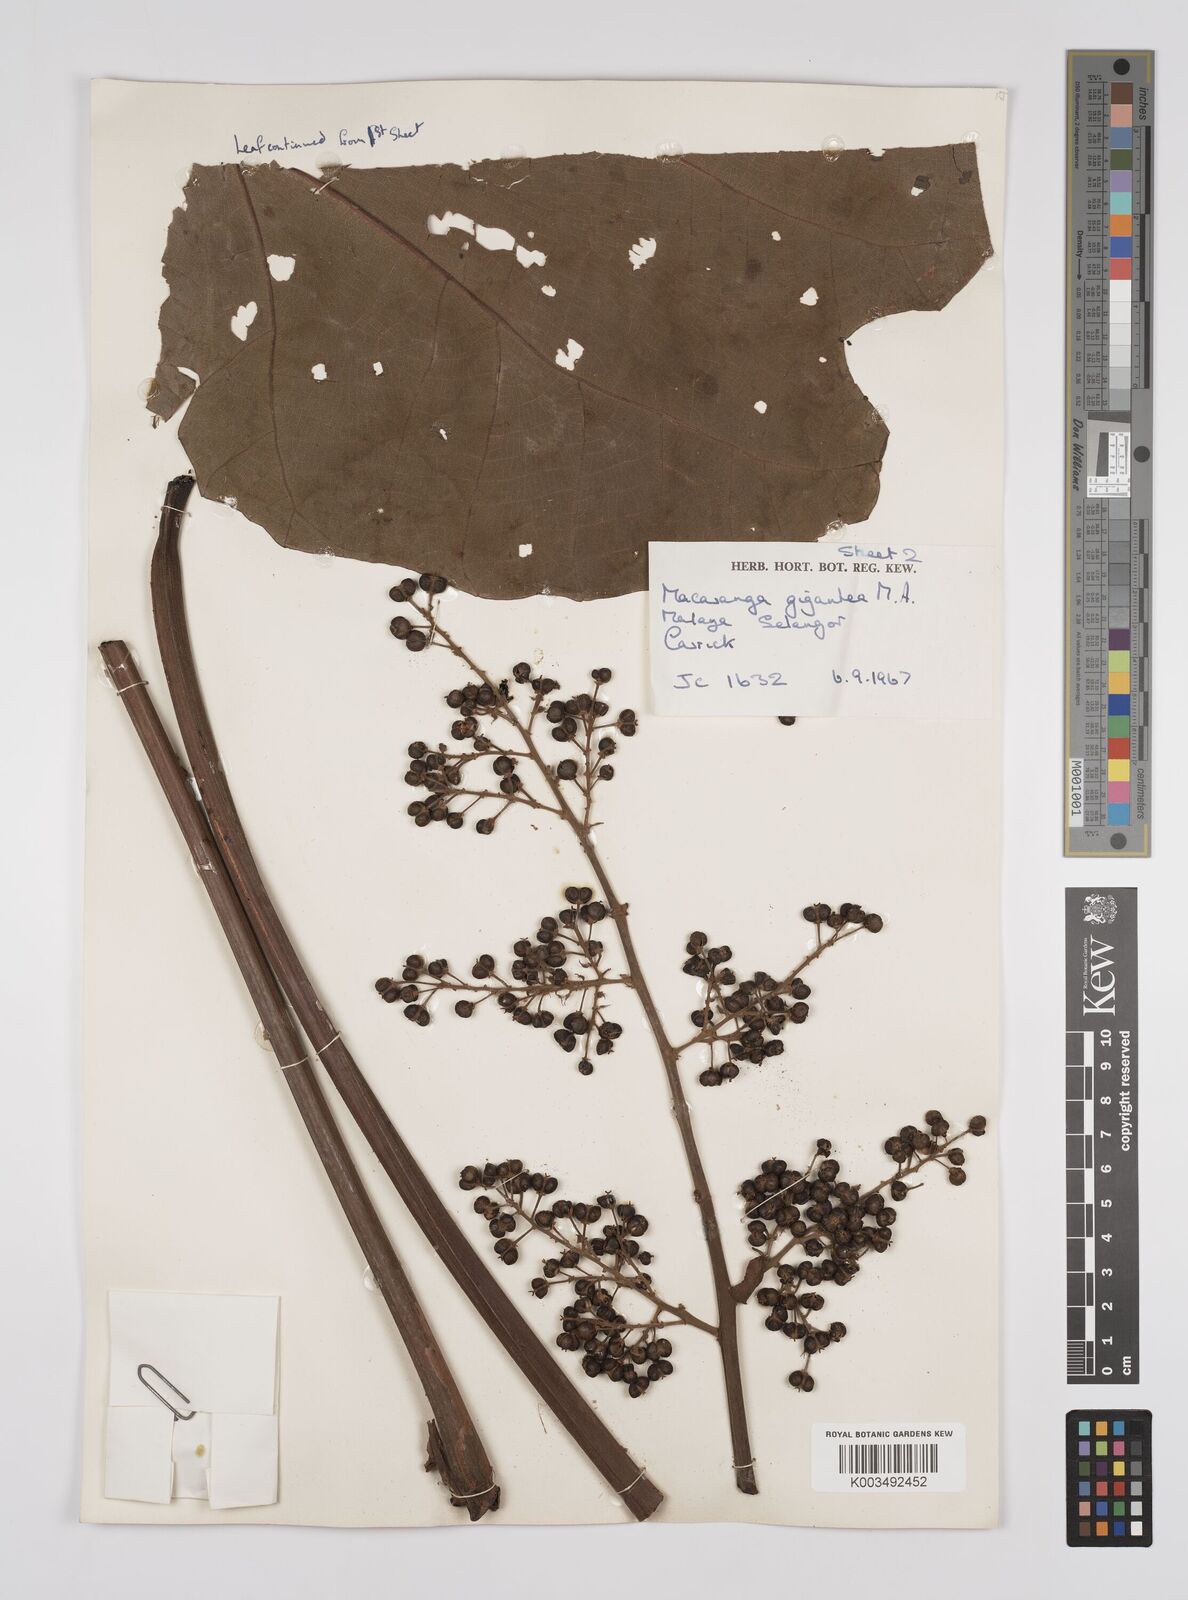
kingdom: Plantae
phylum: Tracheophyta
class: Magnoliopsida
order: Malpighiales
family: Euphorbiaceae
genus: Macaranga
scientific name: Macaranga gigantea
